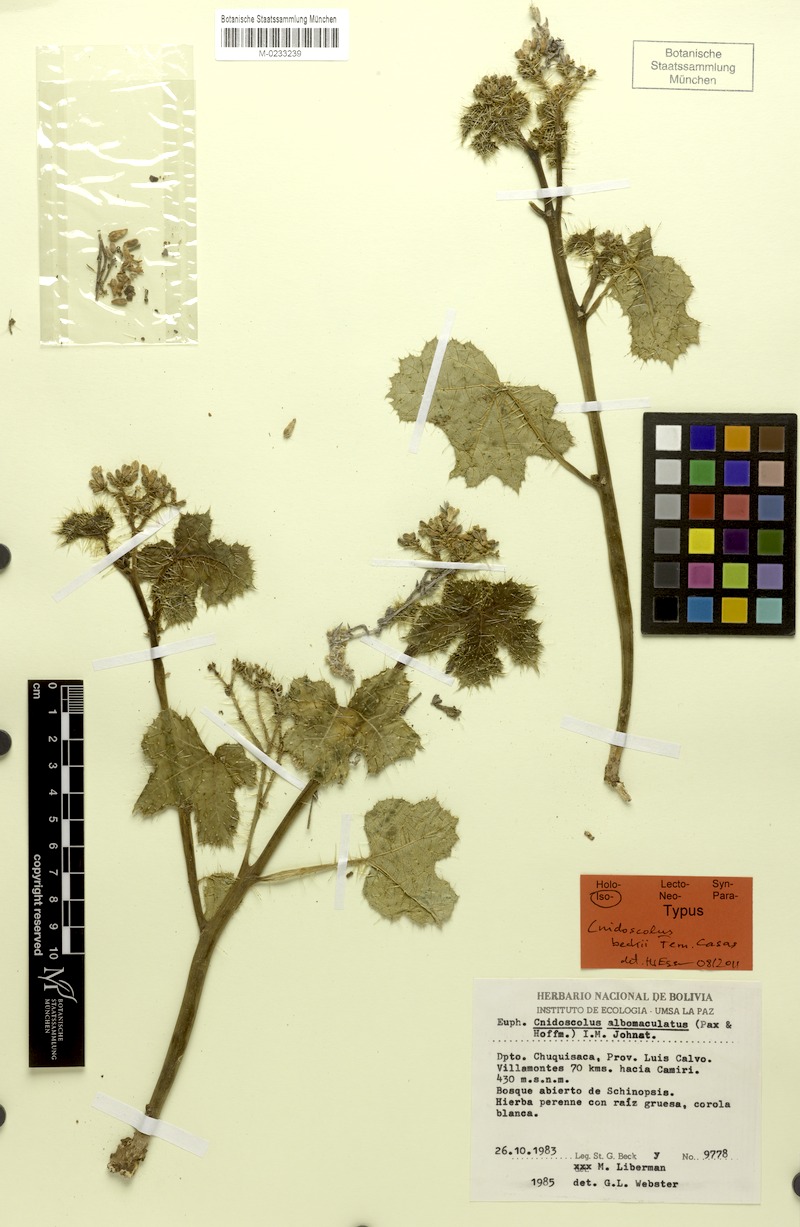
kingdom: Plantae
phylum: Tracheophyta
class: Magnoliopsida
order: Malpighiales
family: Euphorbiaceae
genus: Cnidoscolus
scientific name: Cnidoscolus beckii
